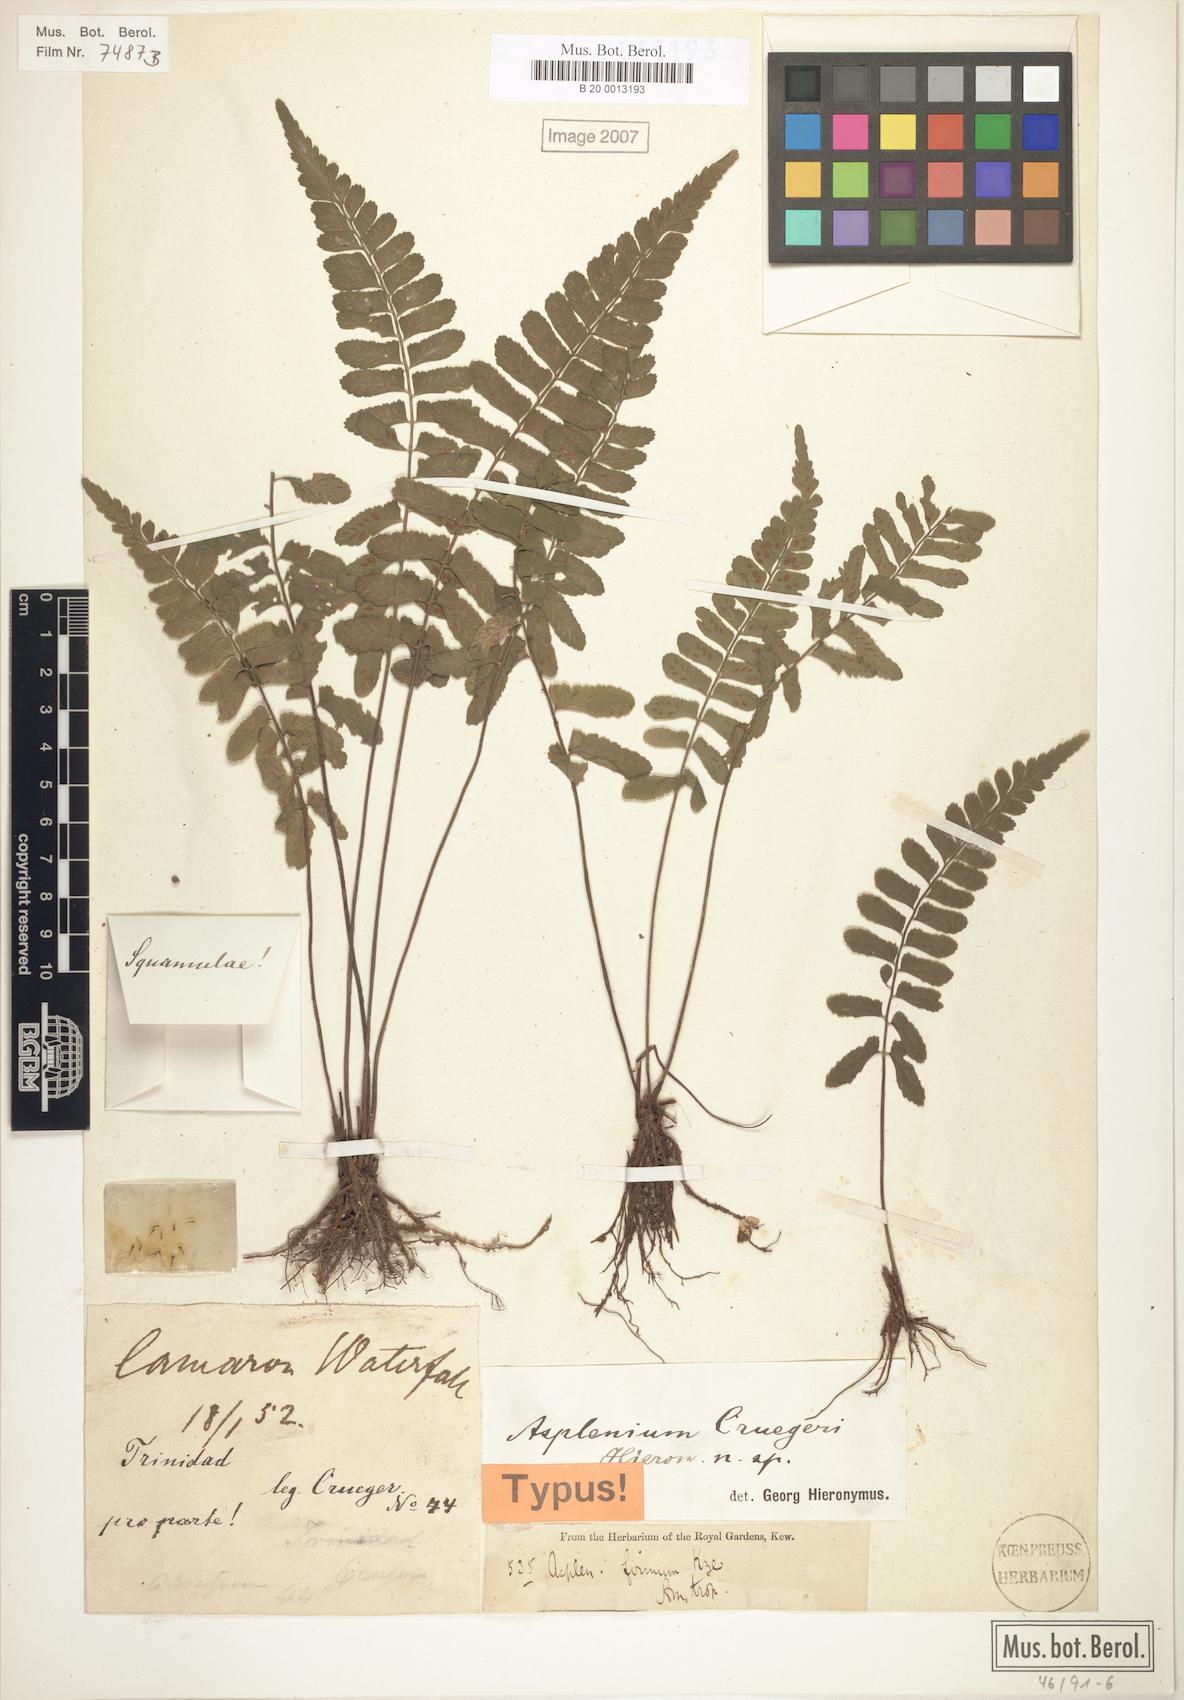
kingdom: Plantae
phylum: Tracheophyta
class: Polypodiopsida
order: Polypodiales
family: Aspleniaceae
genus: Asplenium
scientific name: Asplenium cruegeri
